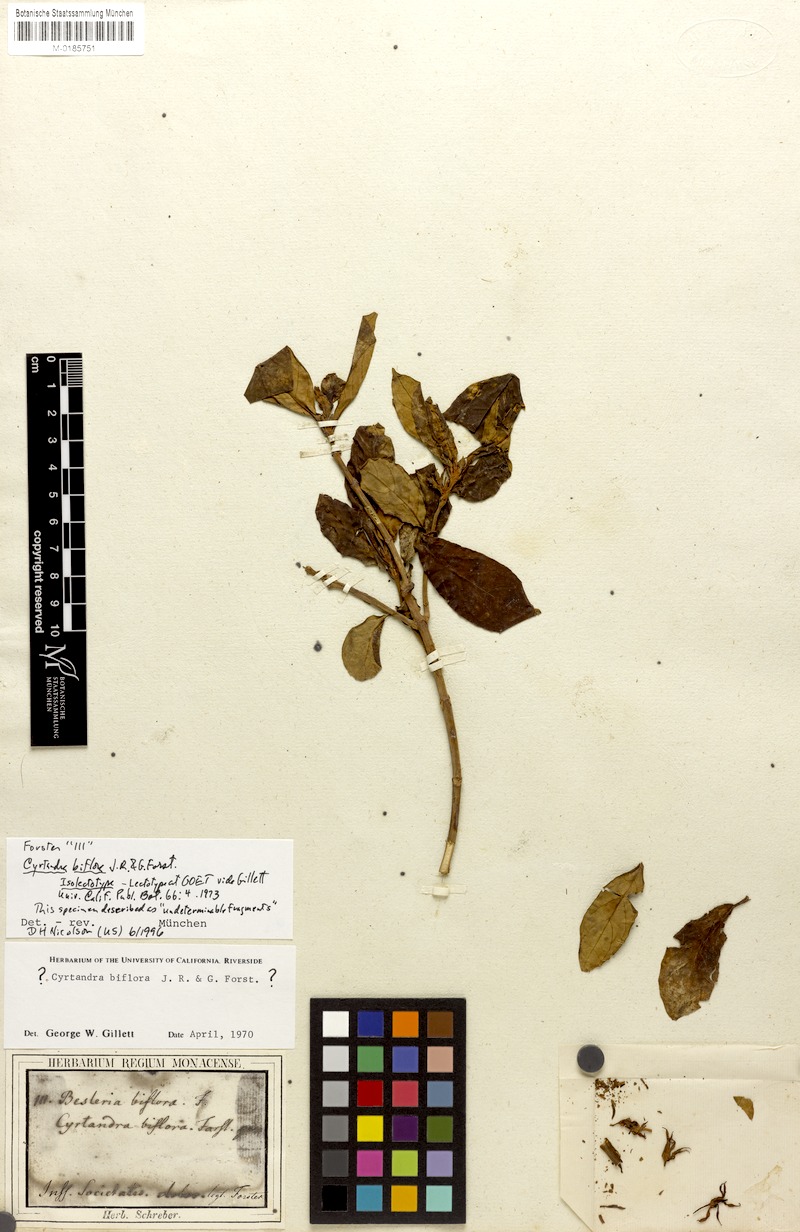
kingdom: Plantae
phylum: Tracheophyta
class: Magnoliopsida
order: Lamiales
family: Gesneriaceae
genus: Cyrtandra
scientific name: Cyrtandra biflora
